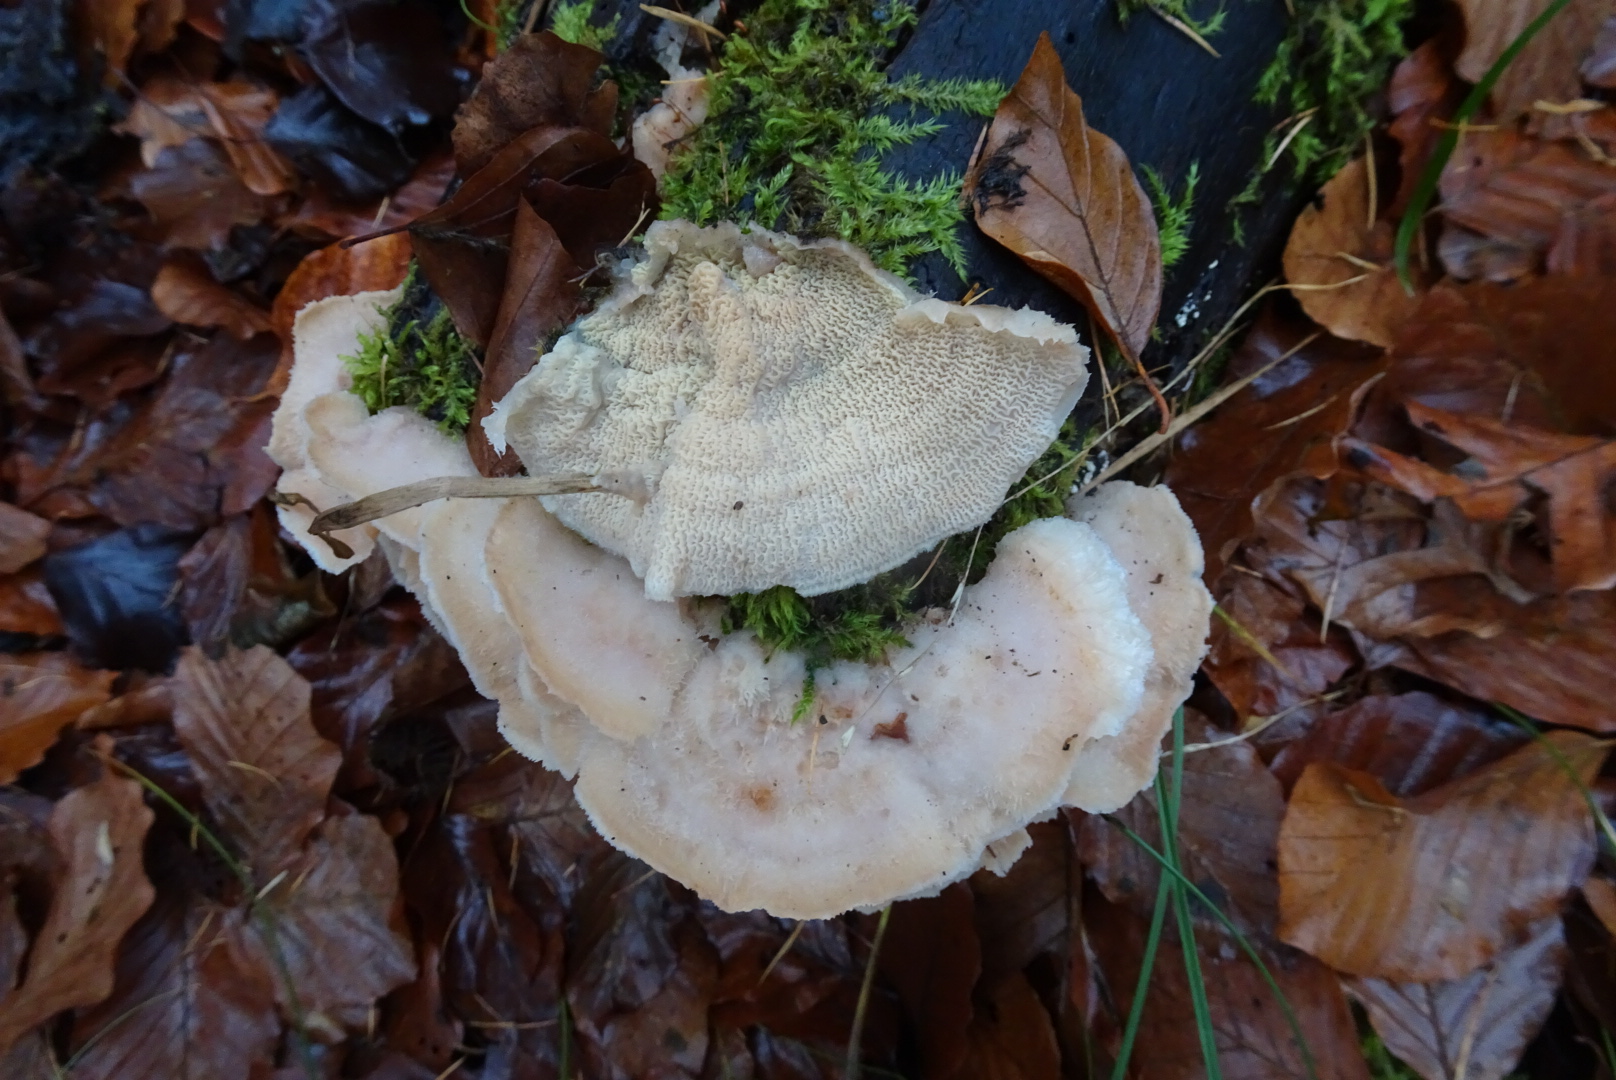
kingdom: Fungi
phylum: Basidiomycota
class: Agaricomycetes
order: Polyporales
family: Meruliaceae
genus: Phlebia
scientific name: Phlebia tremellosa
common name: bævrende åresvamp
